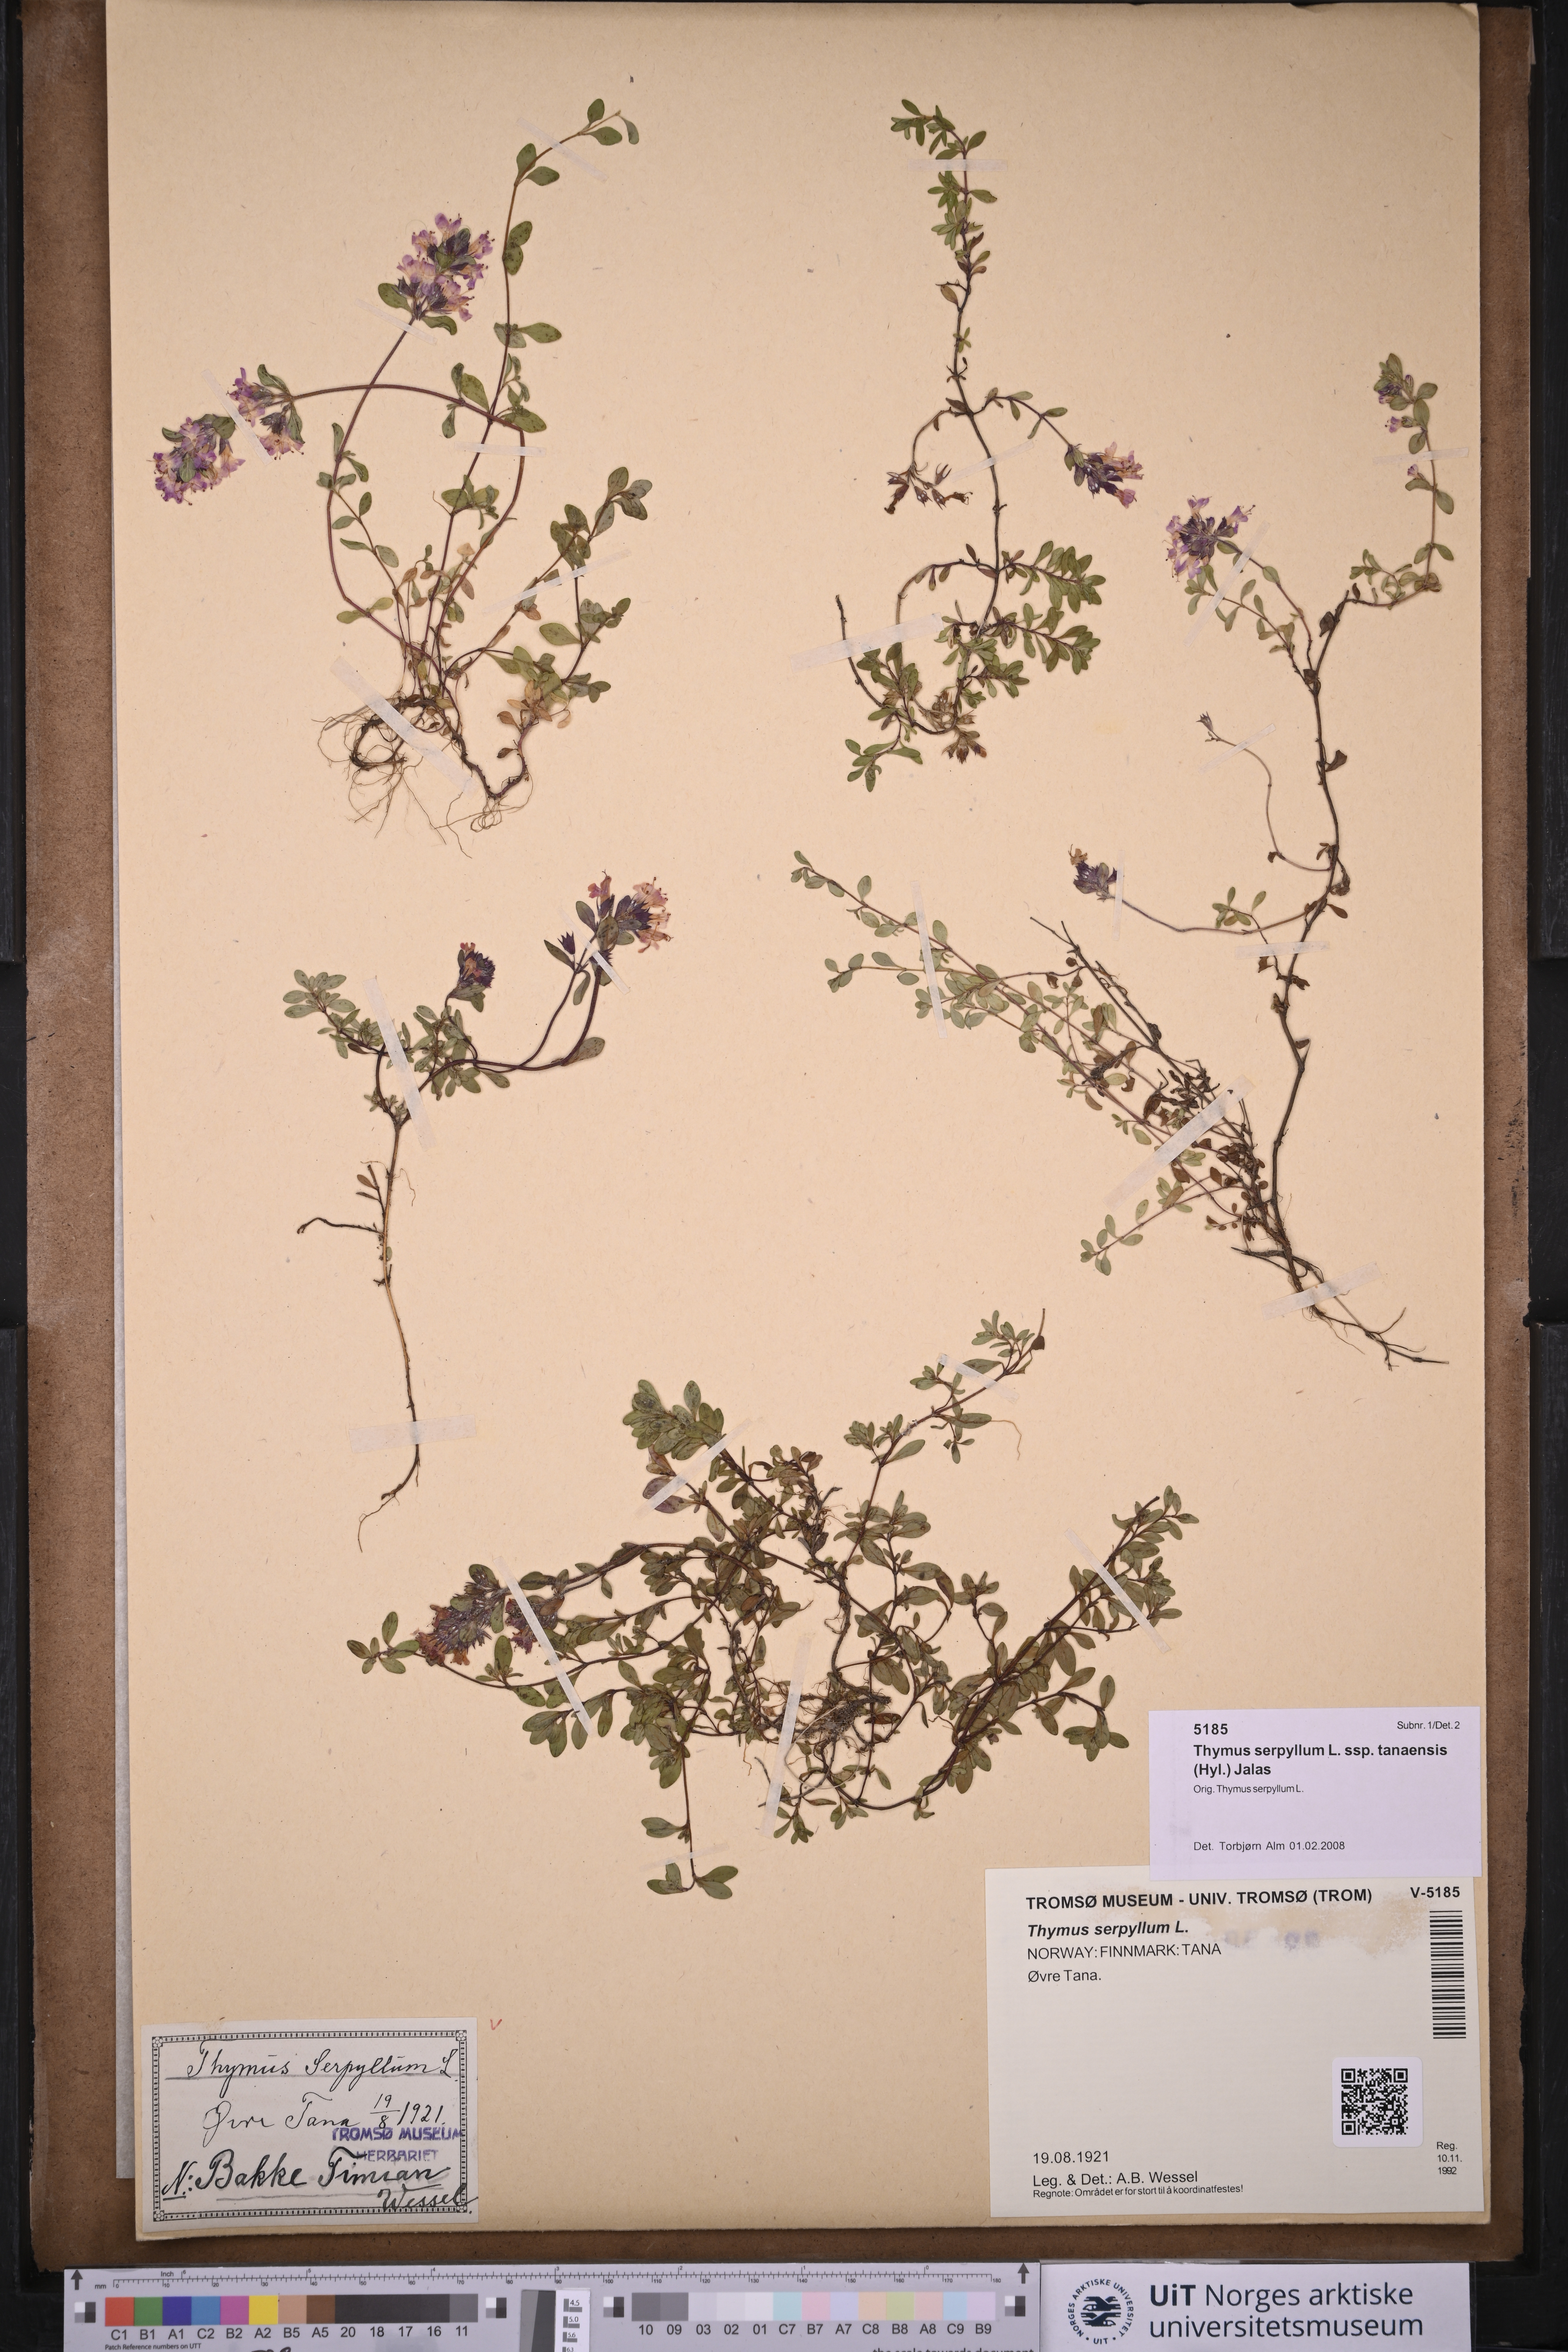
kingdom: Plantae
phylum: Tracheophyta
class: Magnoliopsida
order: Lamiales
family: Lamiaceae
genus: Thymus
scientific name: Thymus serpyllum
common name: Breckland thyme
